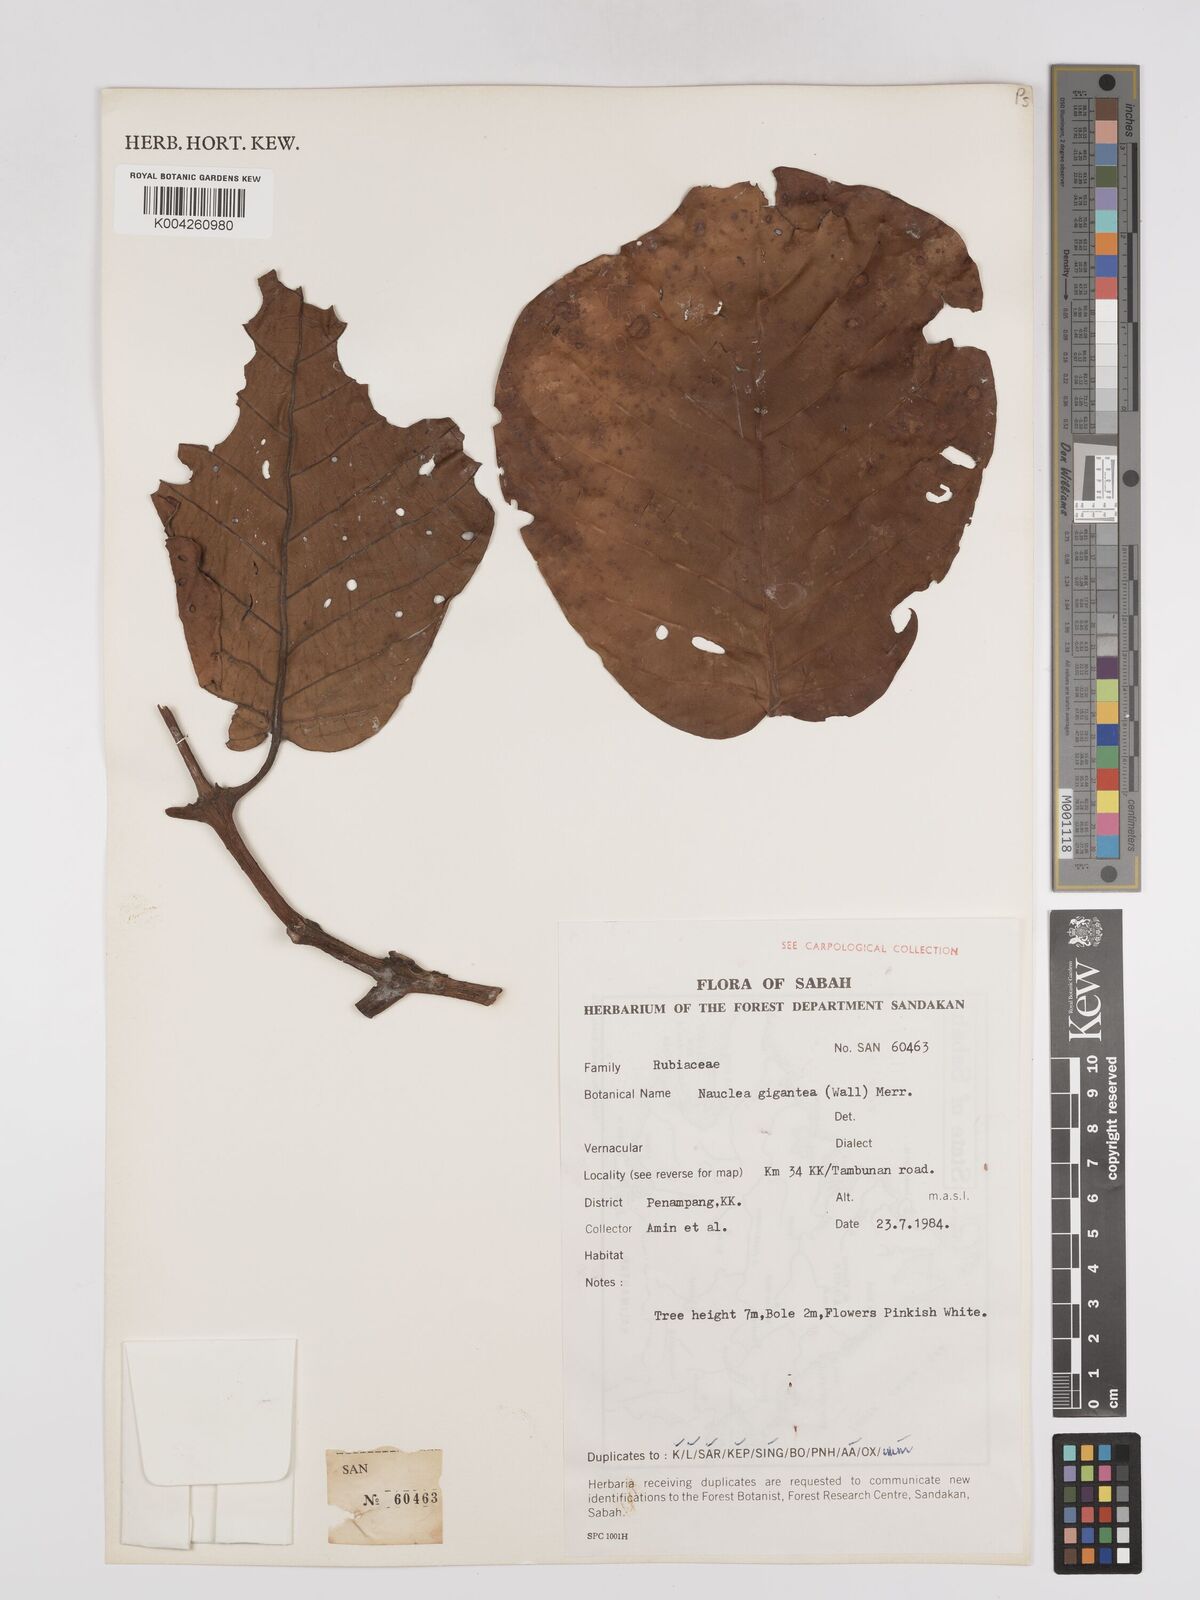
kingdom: Plantae
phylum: Tracheophyta
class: Magnoliopsida
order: Gentianales
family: Rubiaceae
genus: Neonauclea
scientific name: Neonauclea gigantea
